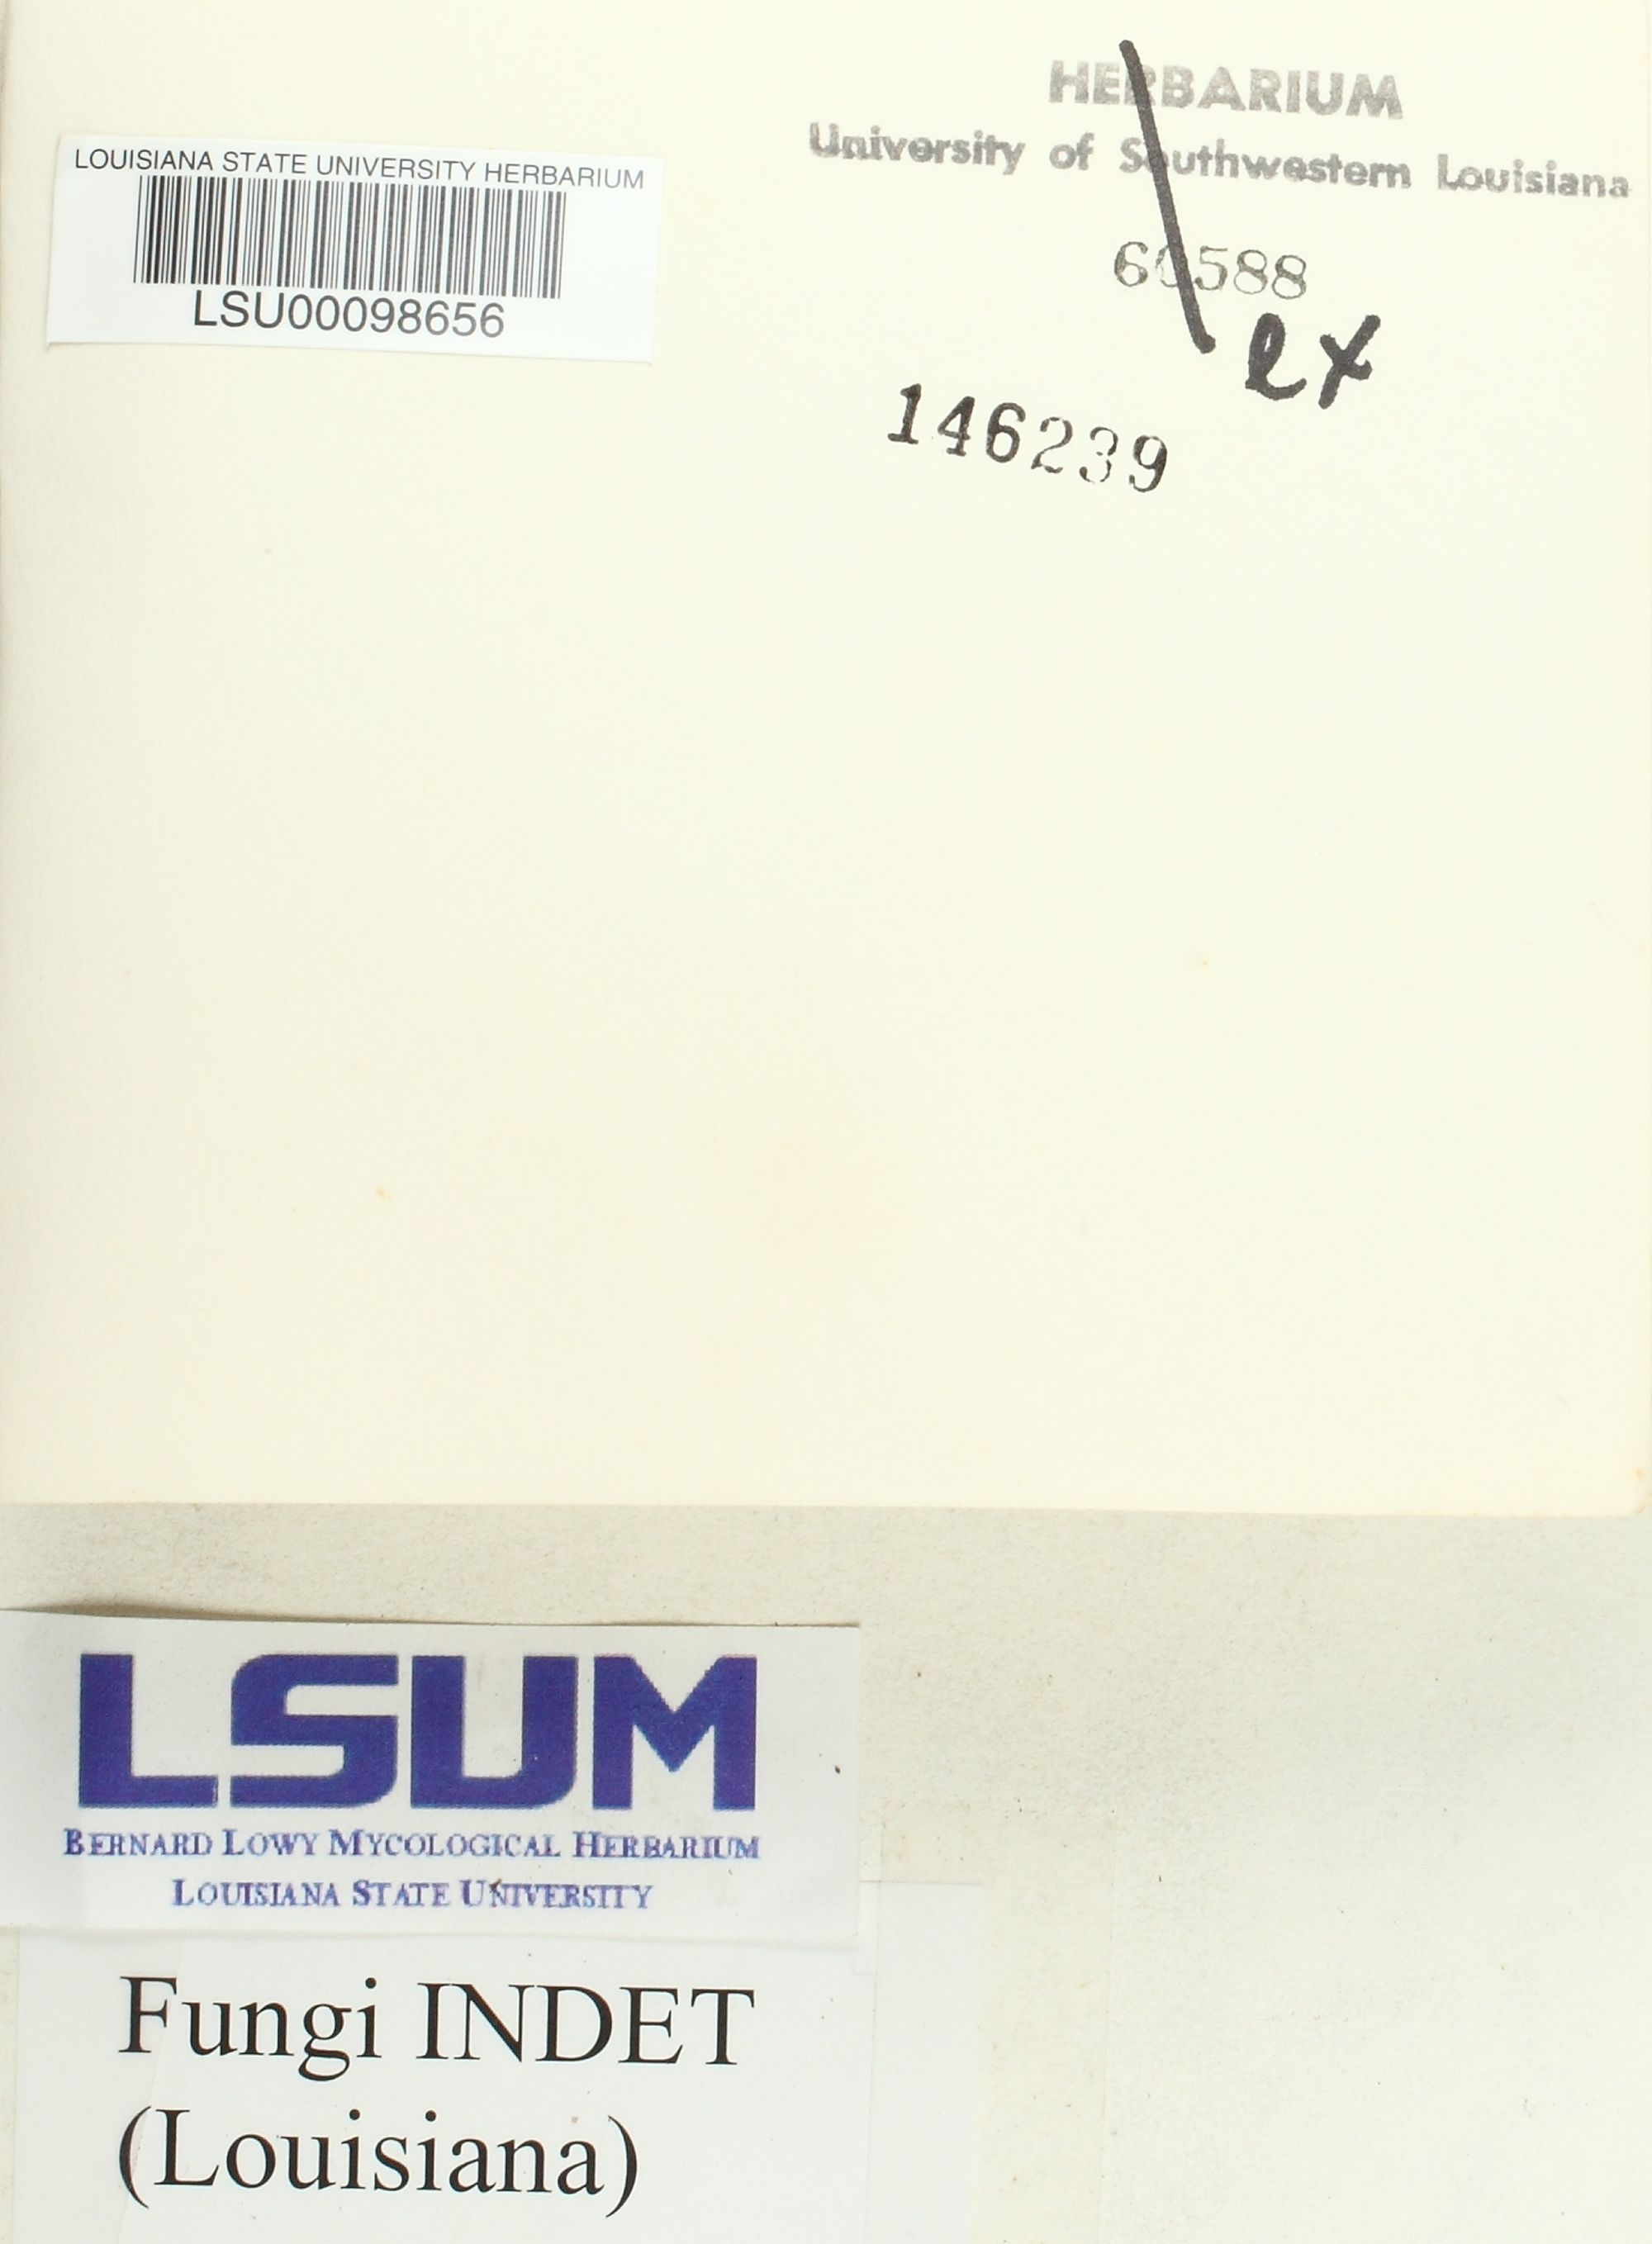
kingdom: Fungi
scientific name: Fungi
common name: Fungi
